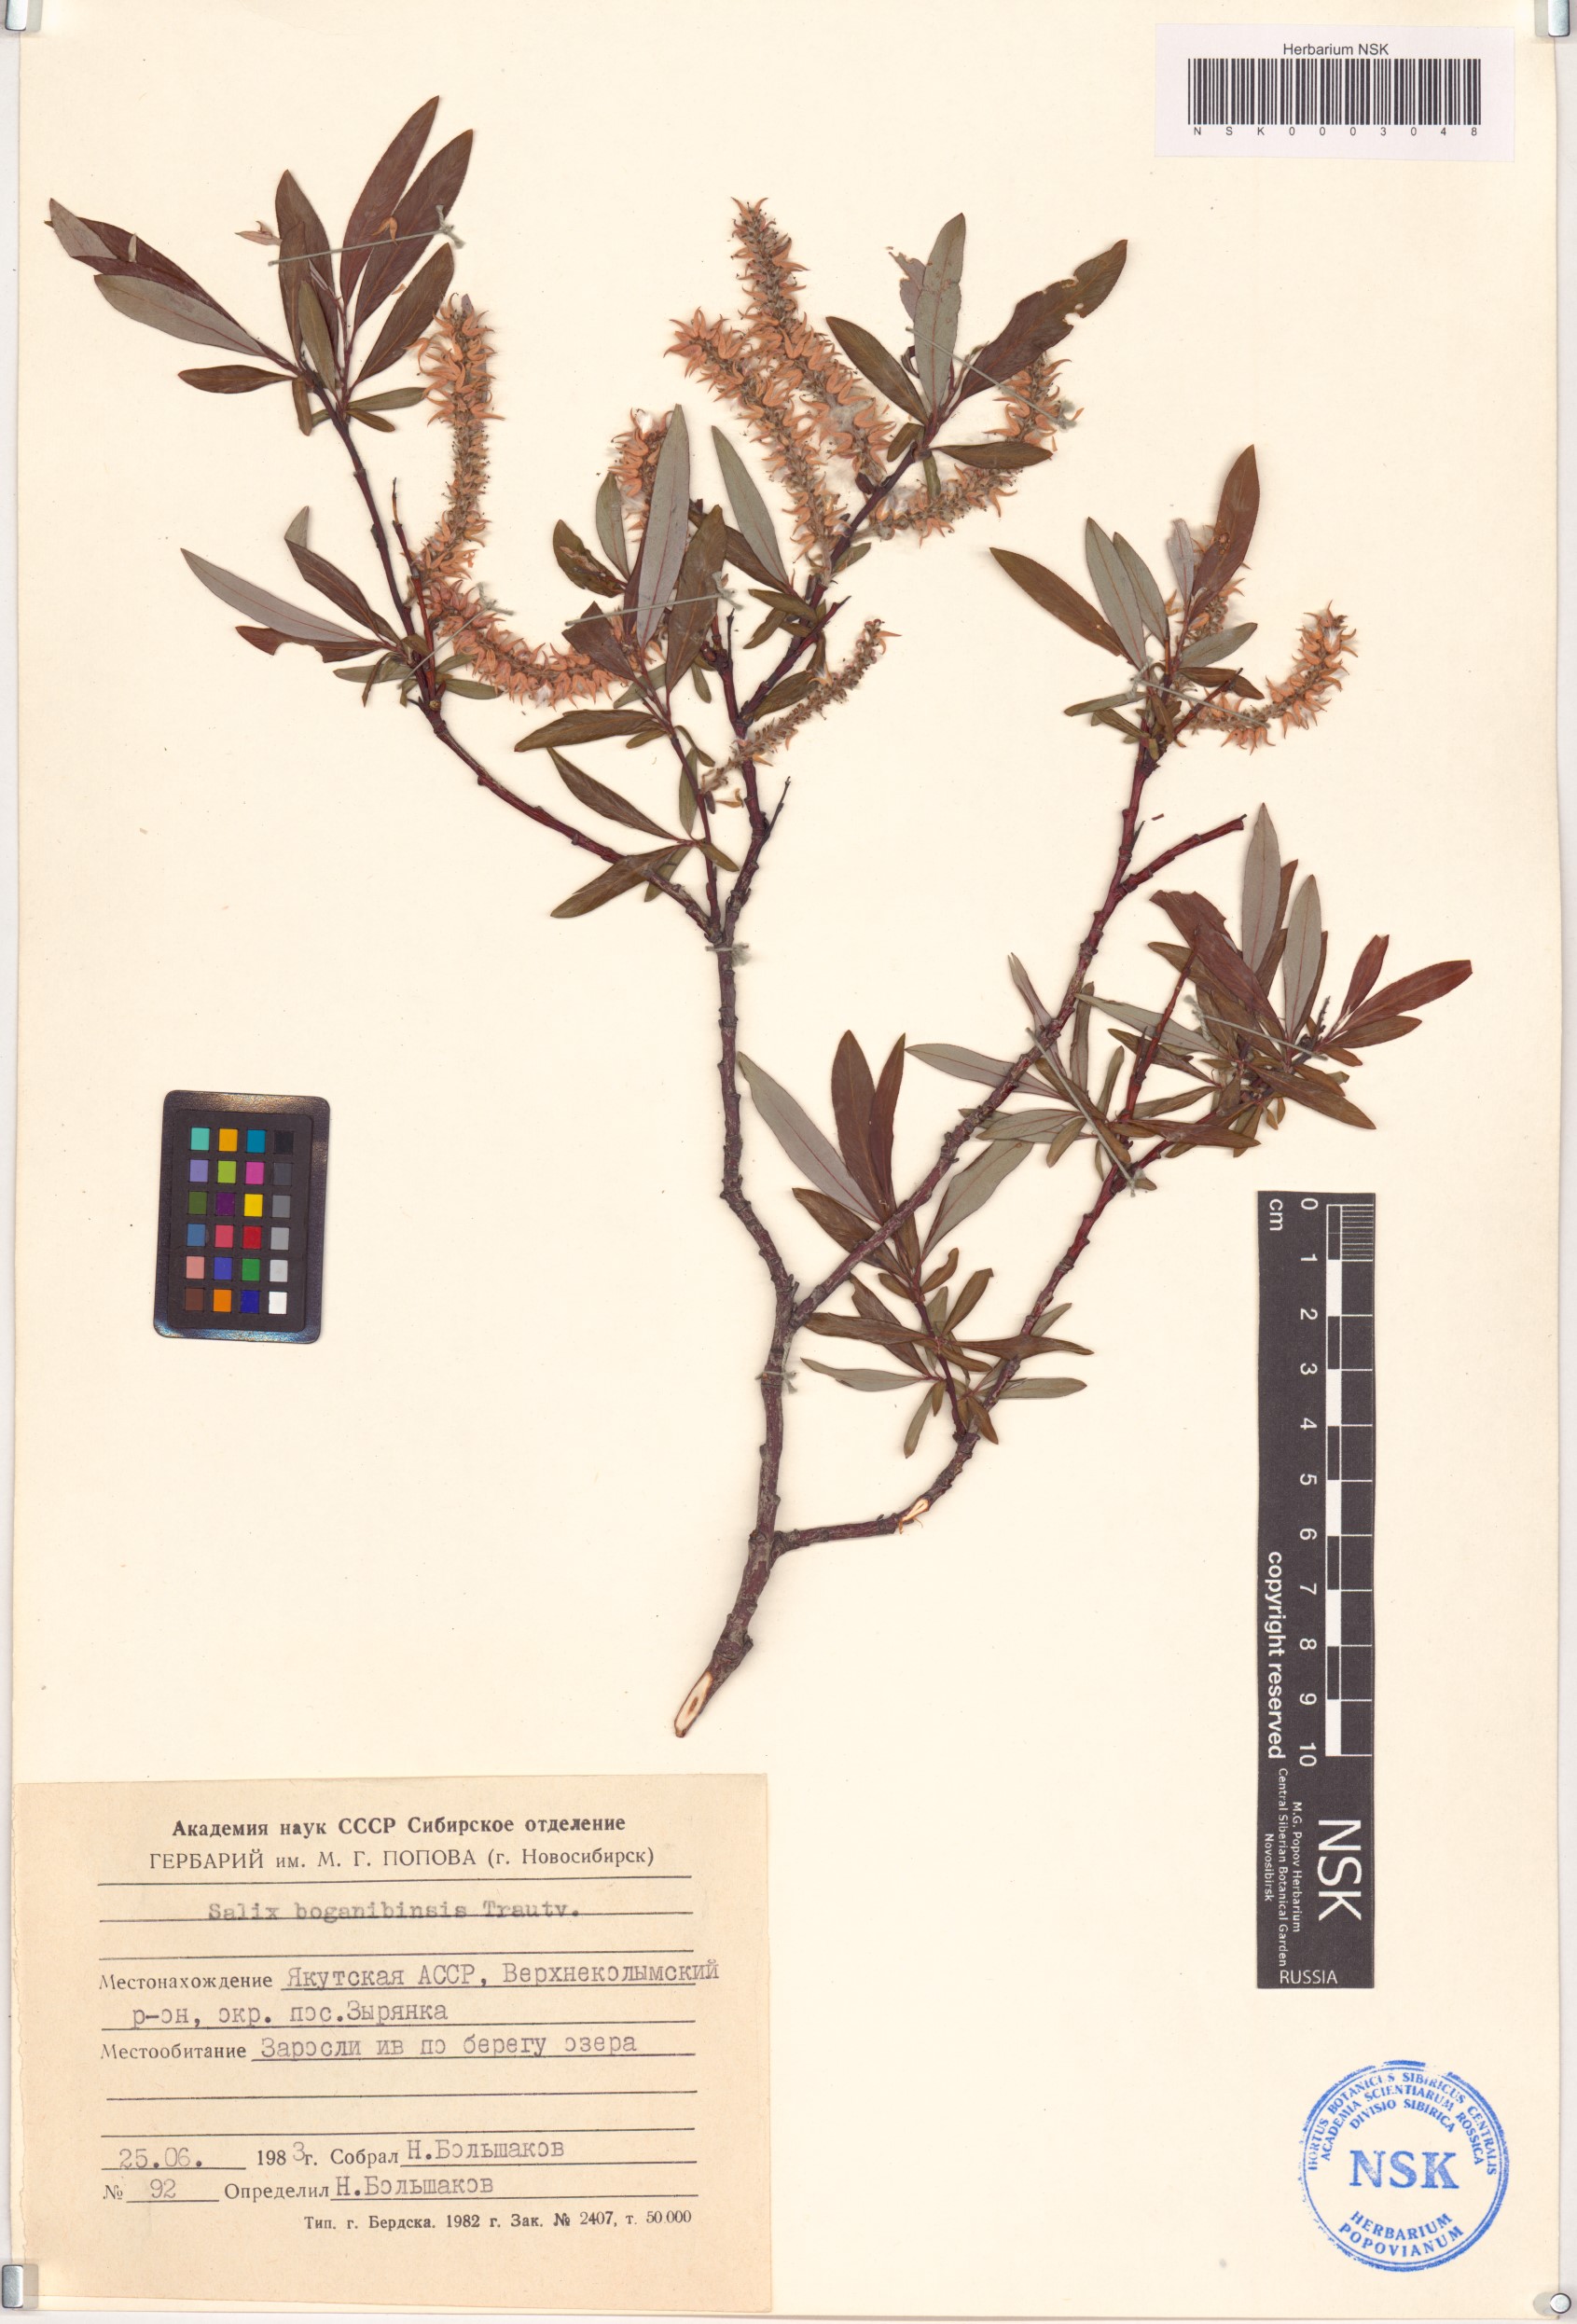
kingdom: Plantae
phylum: Tracheophyta
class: Magnoliopsida
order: Malpighiales
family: Salicaceae
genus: Salix
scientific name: Salix boganidensis
